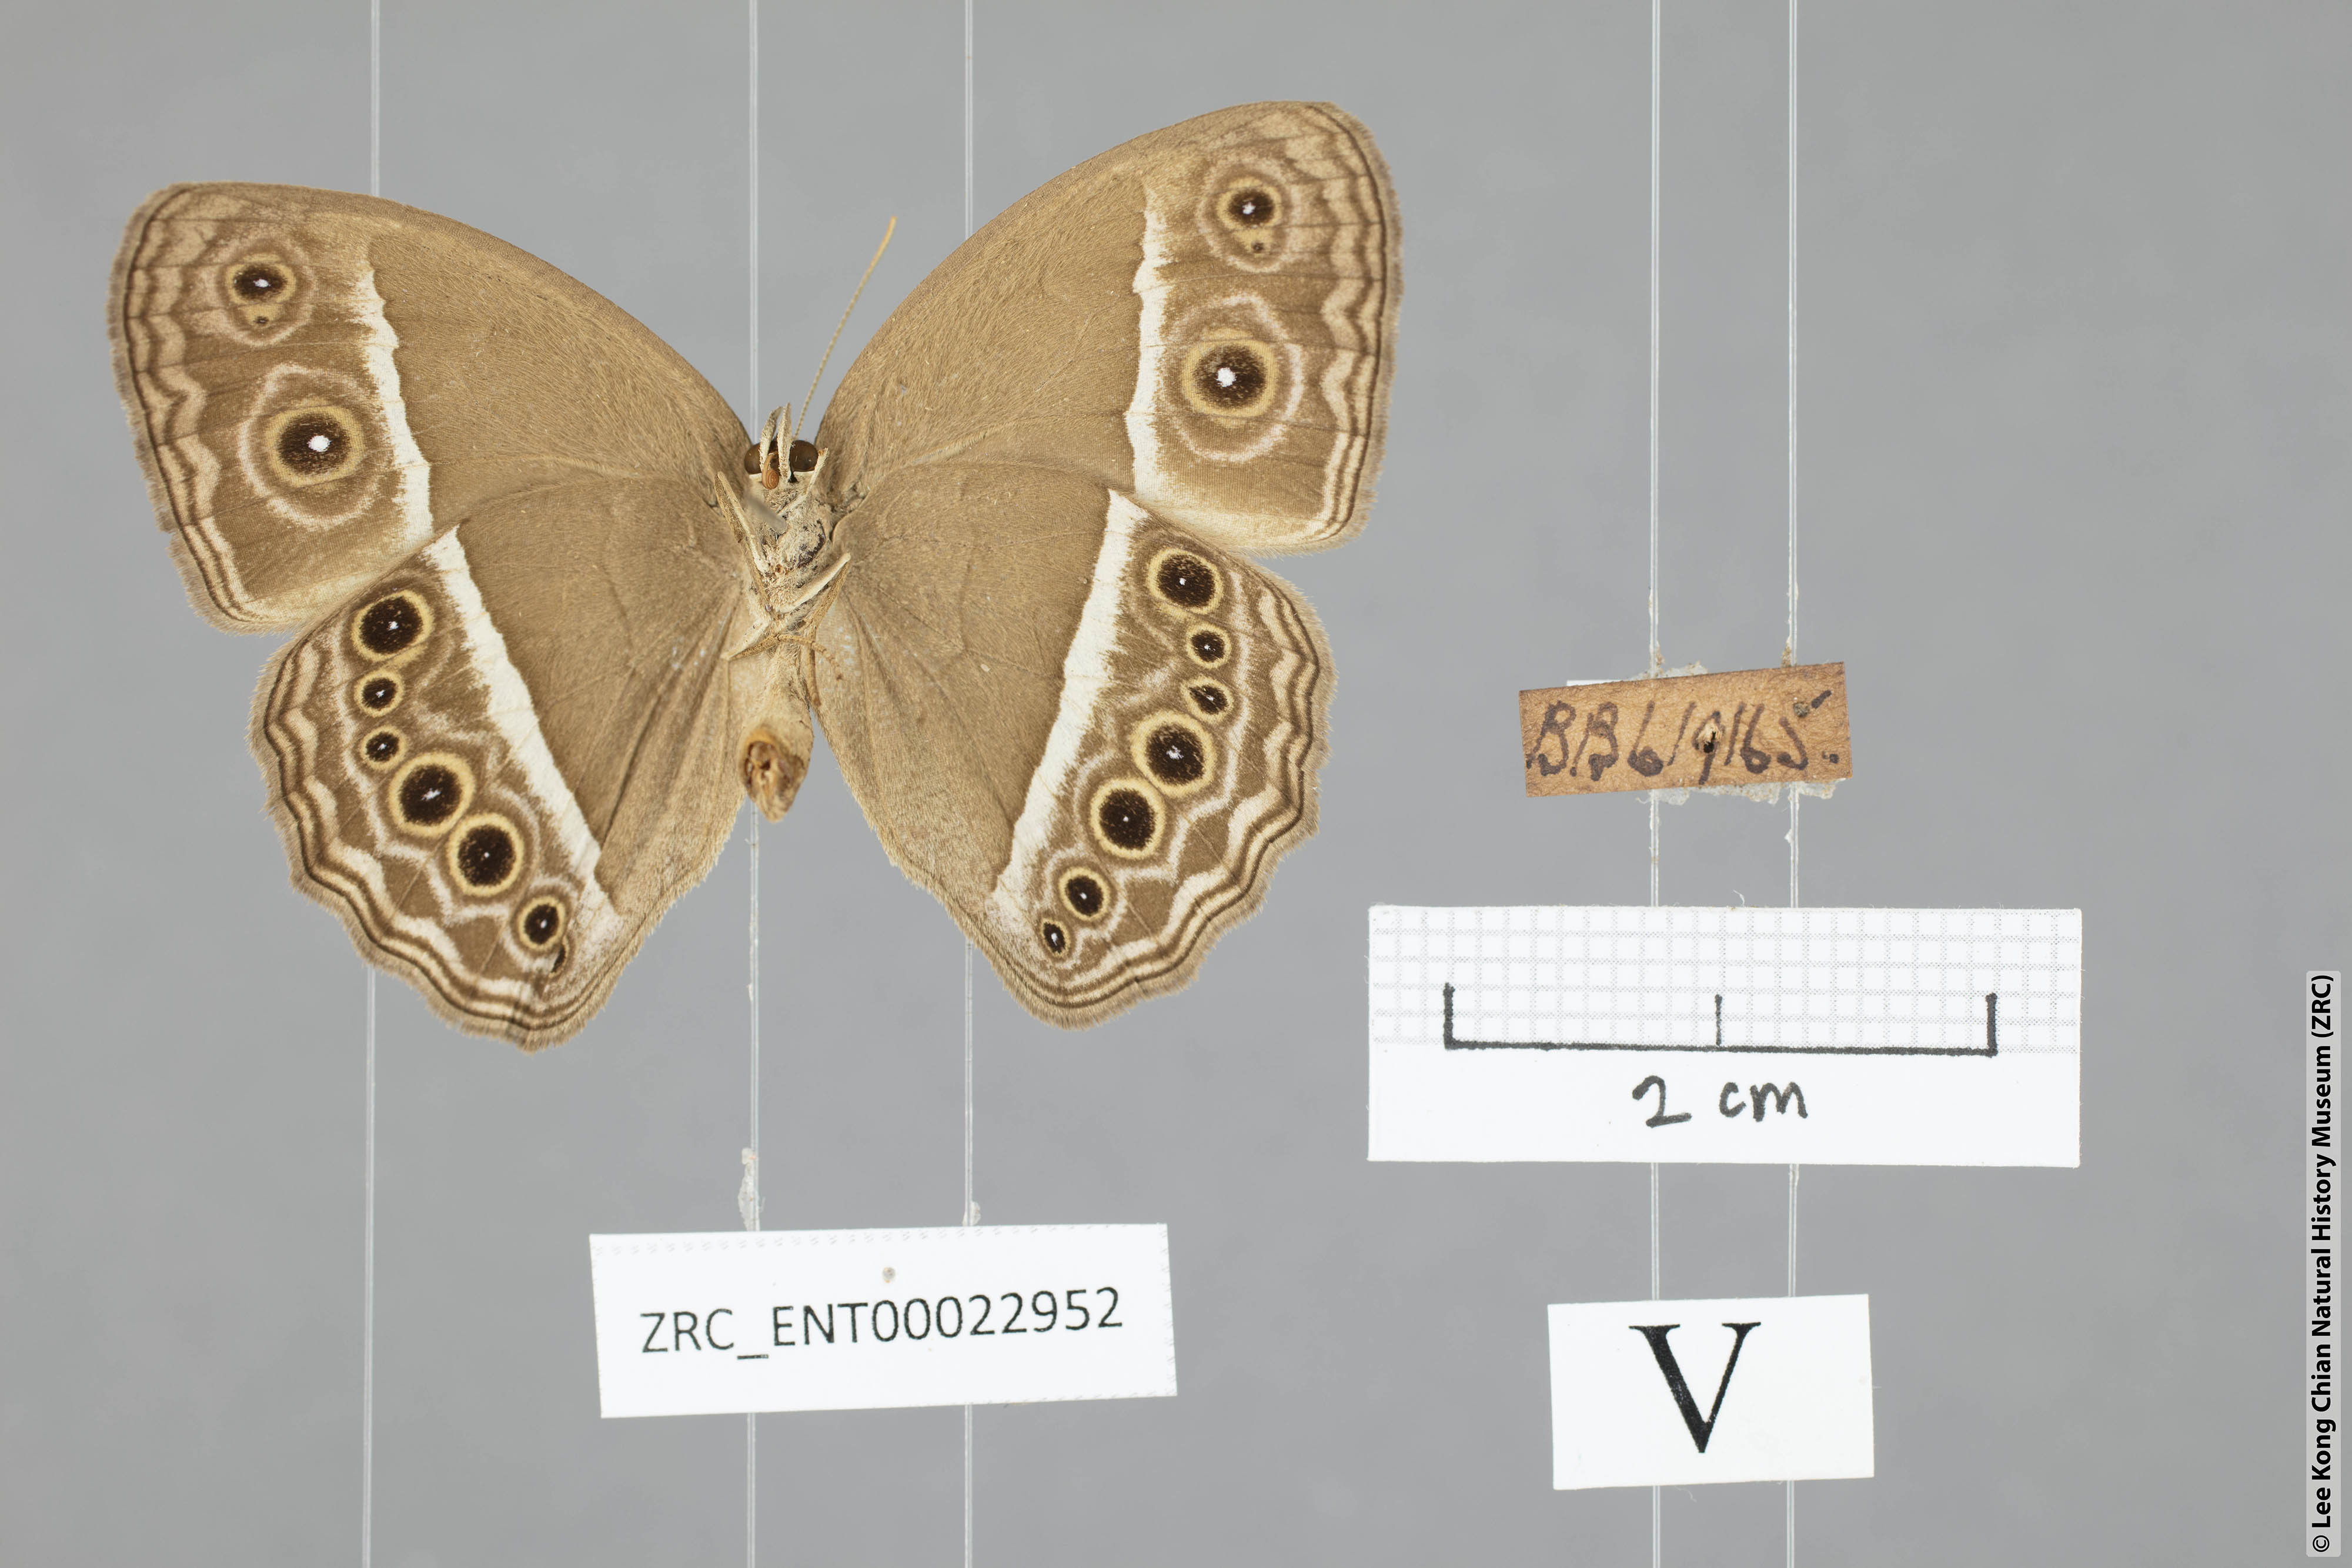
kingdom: Animalia
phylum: Arthropoda
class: Insecta
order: Lepidoptera
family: Nymphalidae
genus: Mycalesis
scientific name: Mycalesis mineus
